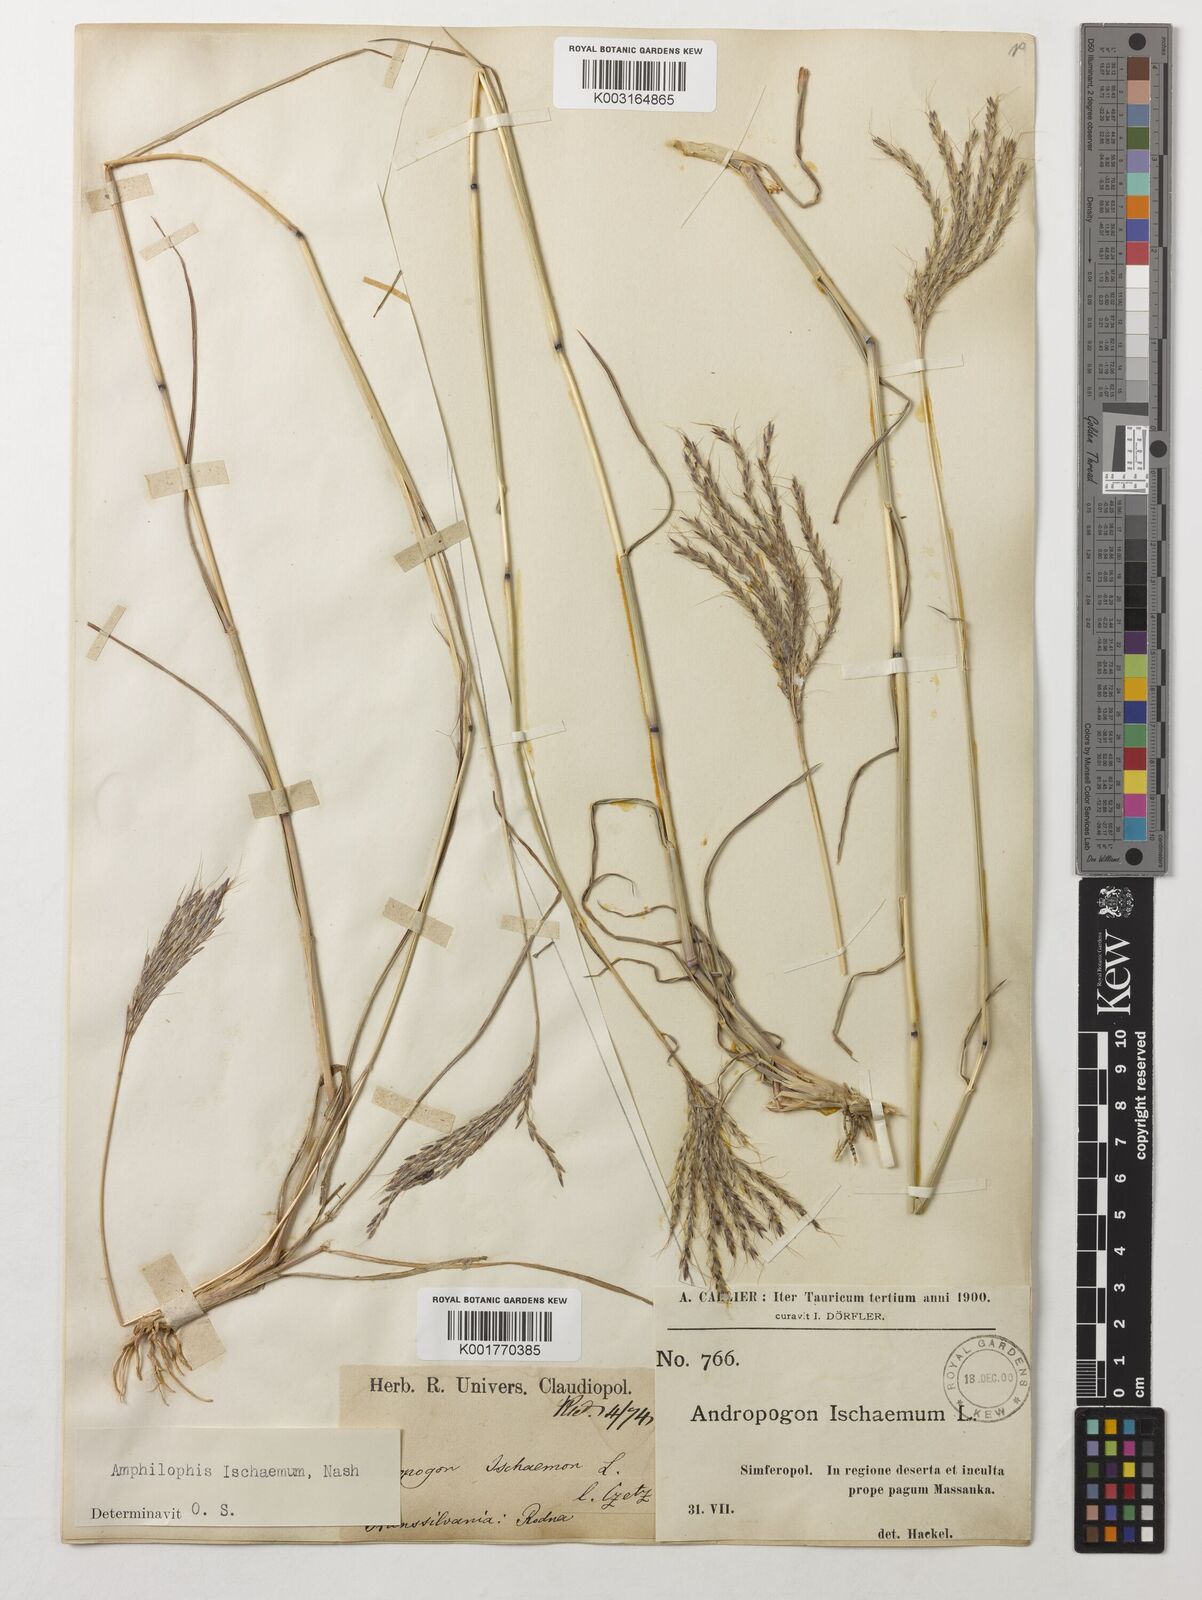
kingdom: Plantae
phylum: Tracheophyta
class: Liliopsida
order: Poales
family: Poaceae
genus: Bothriochloa
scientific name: Bothriochloa ischaemum
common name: Yellow bluestem
